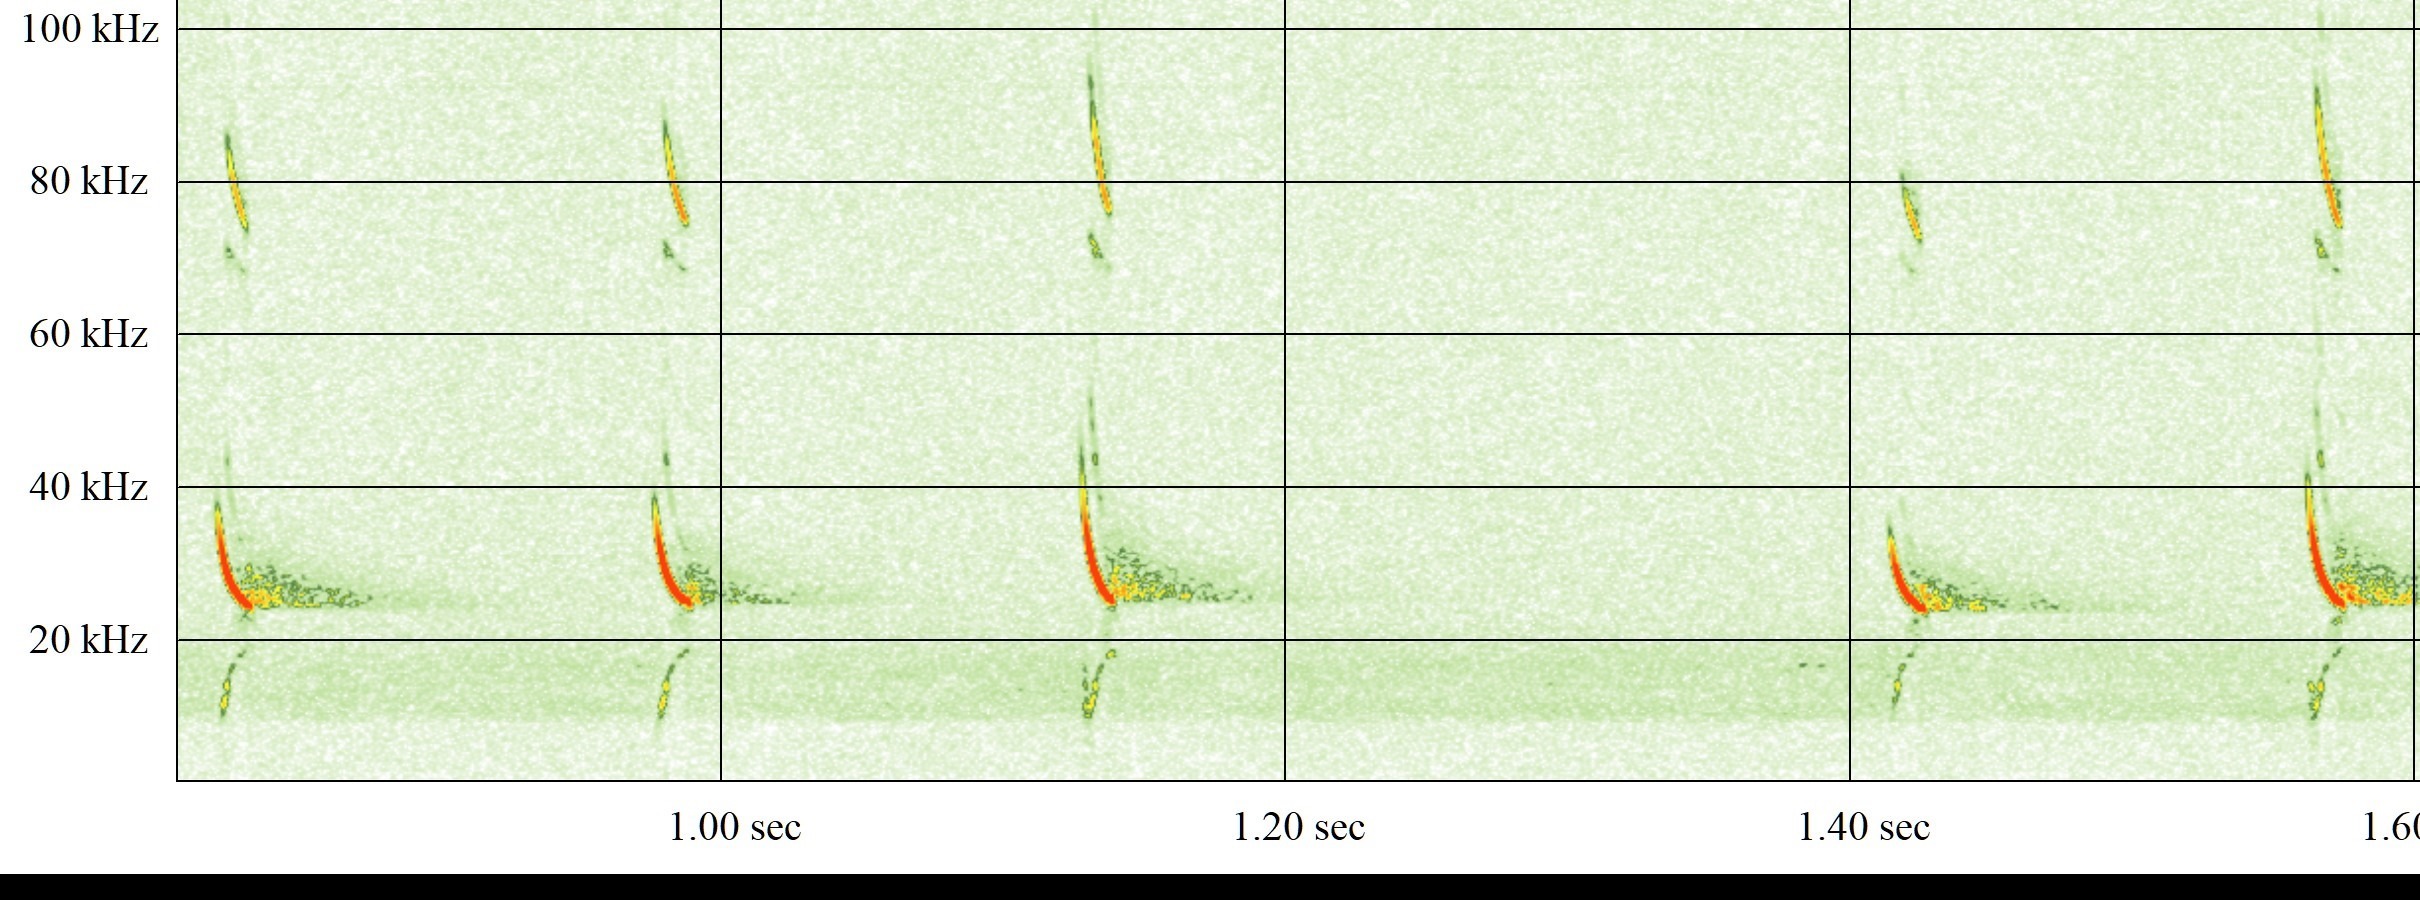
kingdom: Animalia
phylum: Chordata
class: Mammalia
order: Chiroptera
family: Vespertilionidae
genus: Eptesicus
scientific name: Eptesicus serotinus
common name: Sydflagermus
